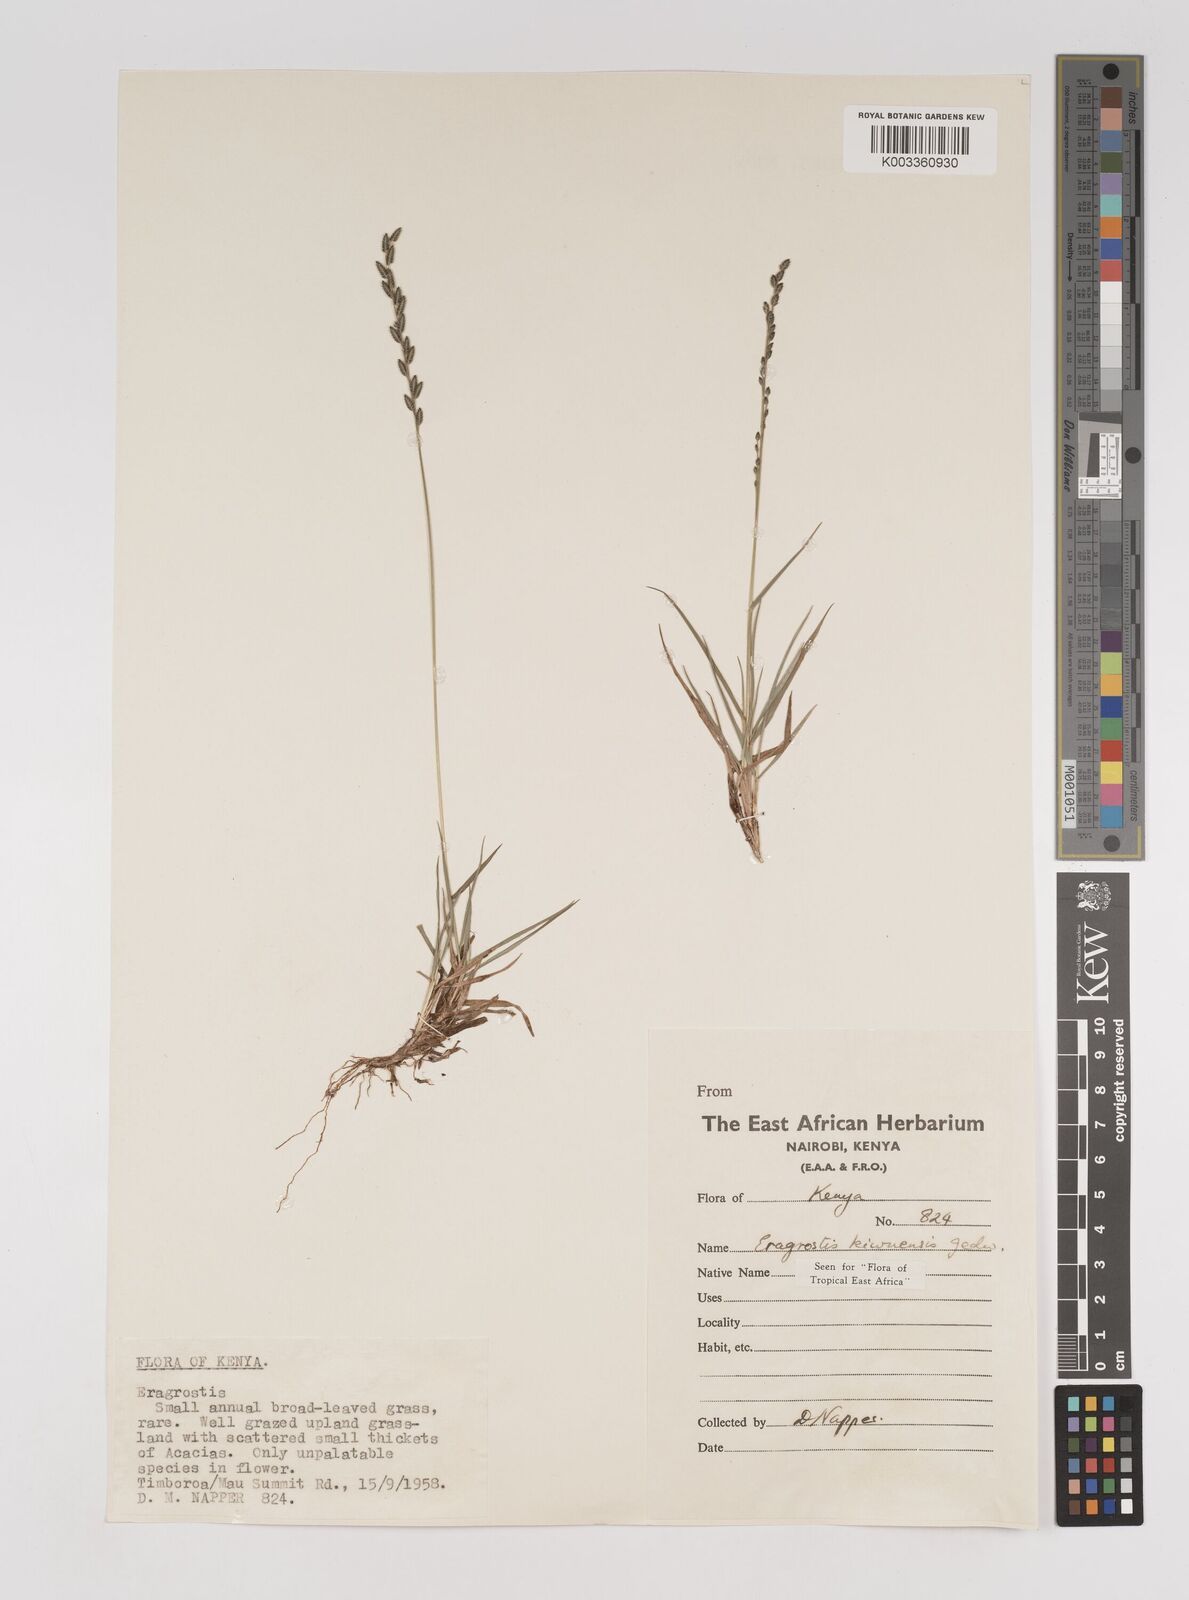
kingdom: Plantae
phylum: Tracheophyta
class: Liliopsida
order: Poales
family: Poaceae
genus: Eragrostis
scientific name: Eragrostis schweinfurthii
